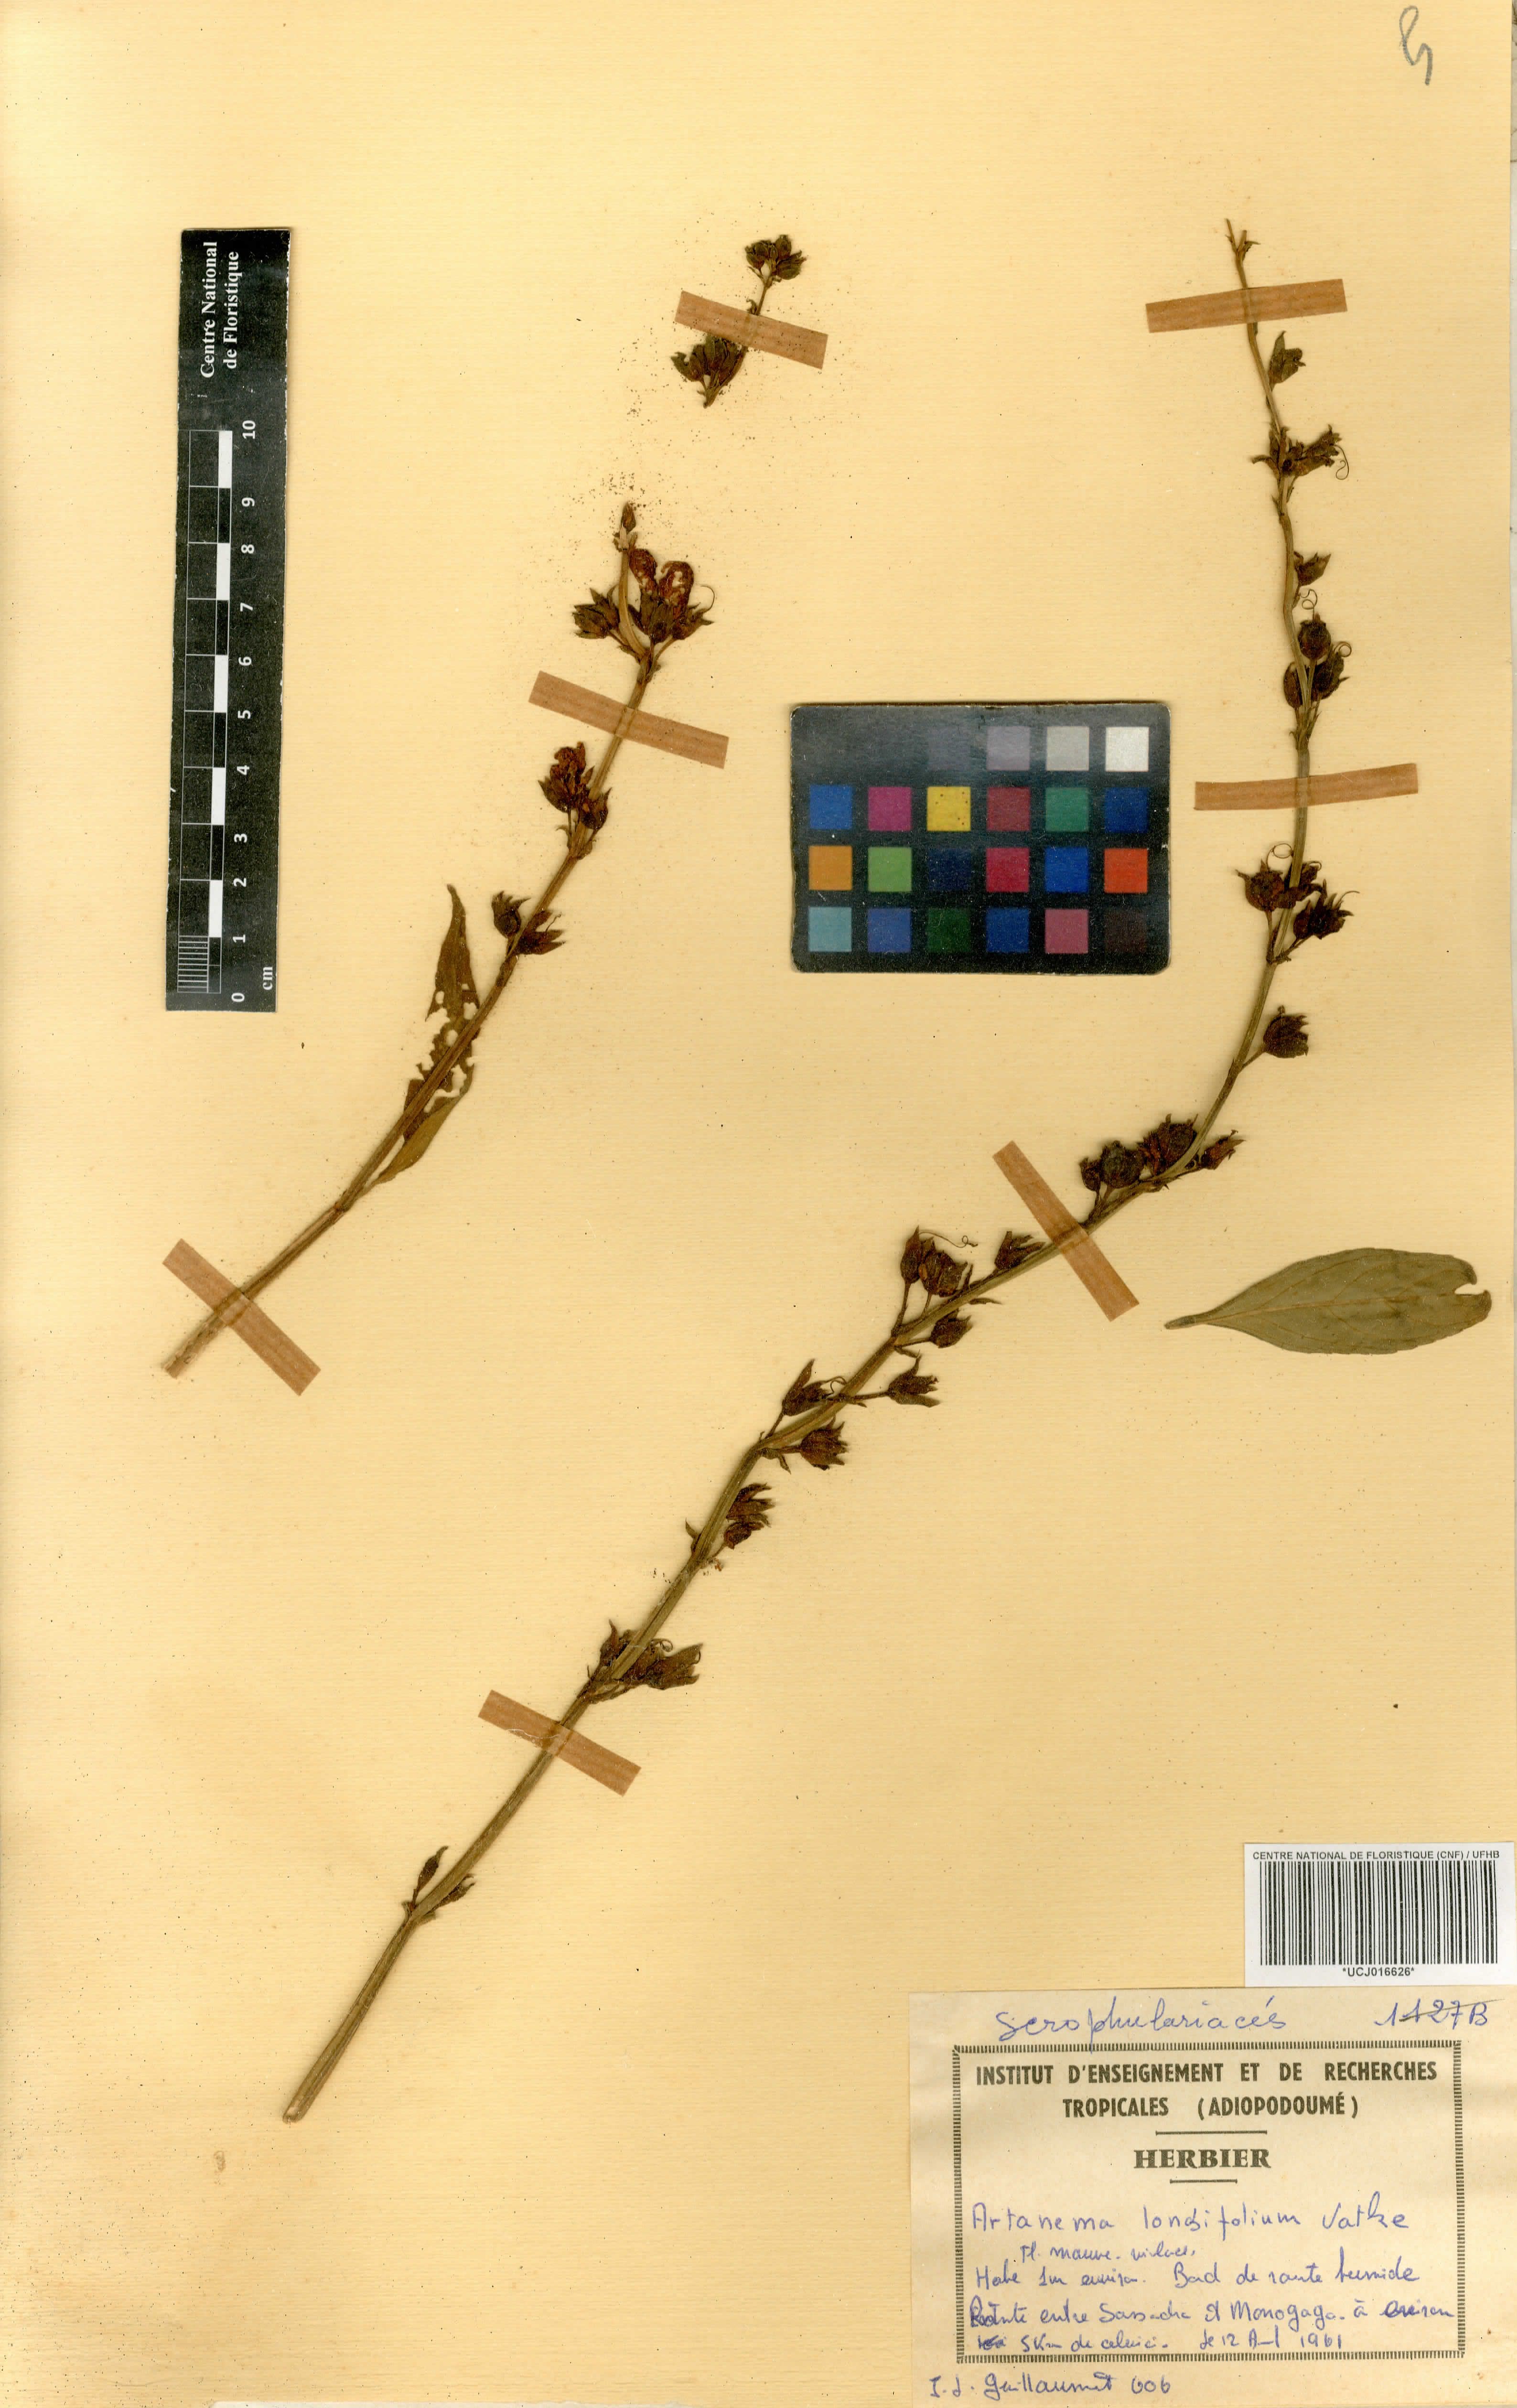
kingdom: Plantae
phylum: Tracheophyta
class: Magnoliopsida
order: Lamiales
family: Linderniaceae
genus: Artanema
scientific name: Artanema longifolium
